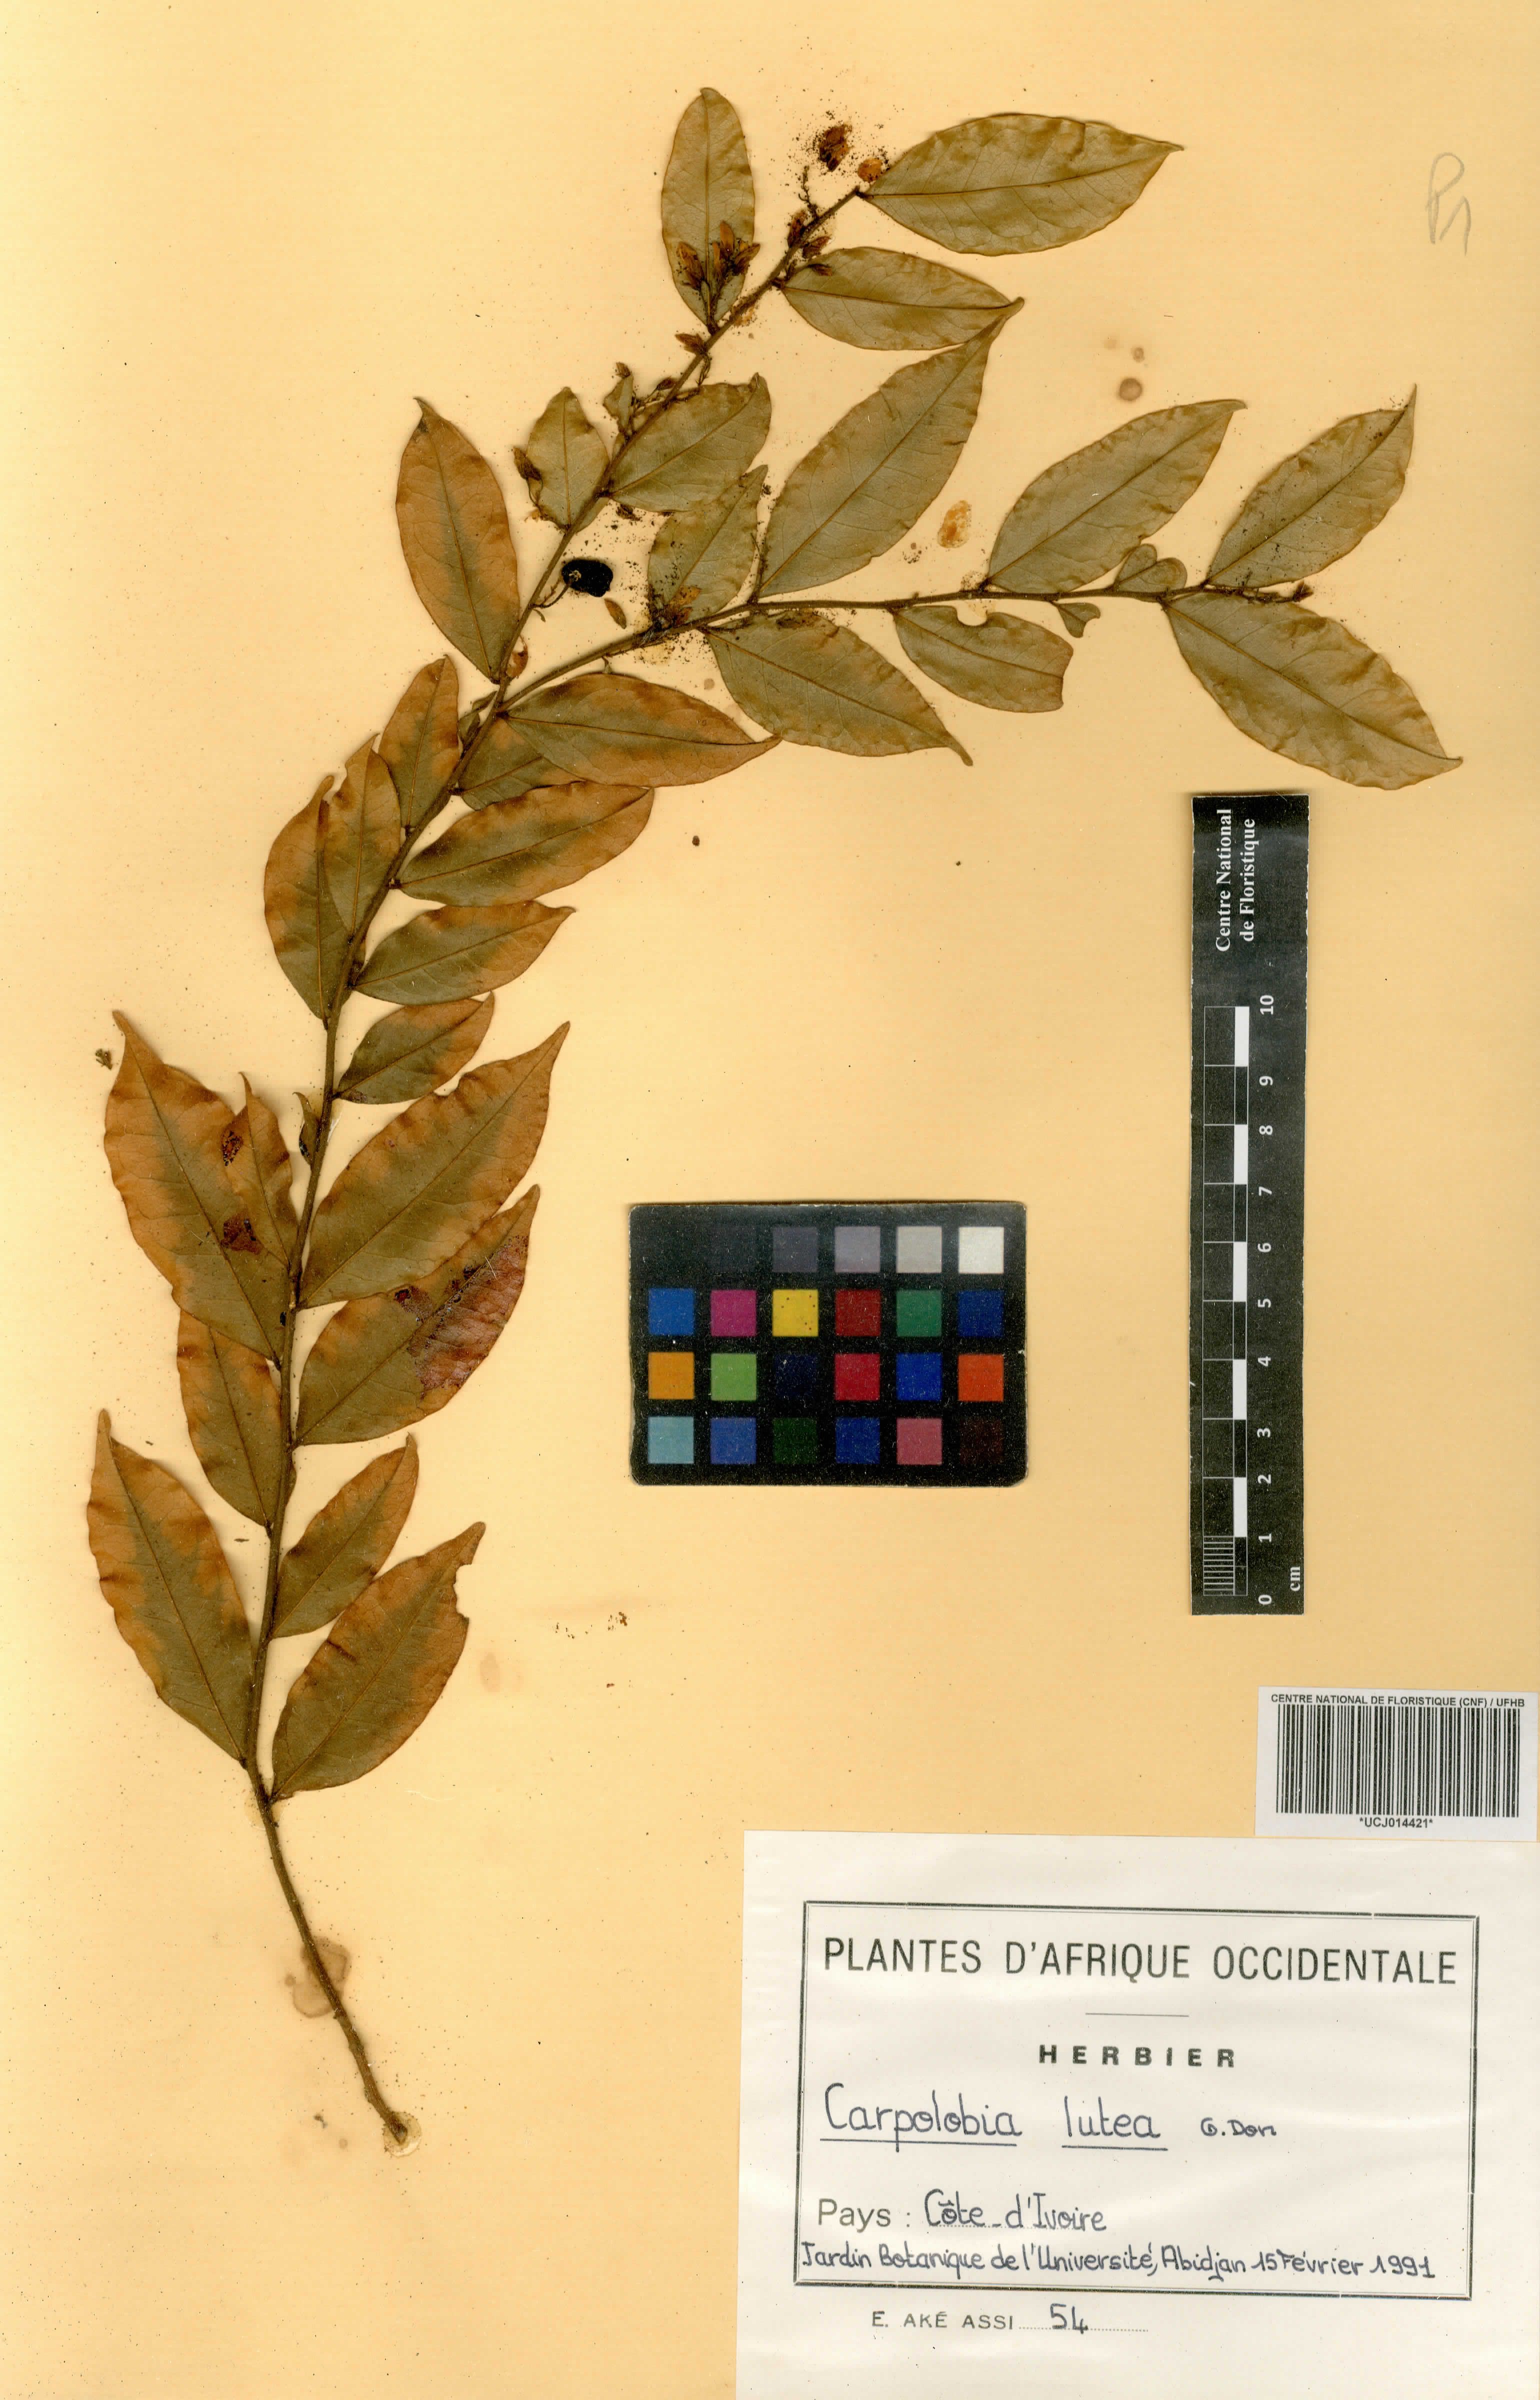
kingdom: Plantae
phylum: Tracheophyta
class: Magnoliopsida
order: Fabales
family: Polygalaceae
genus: Carpolobia
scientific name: Carpolobia lutea
